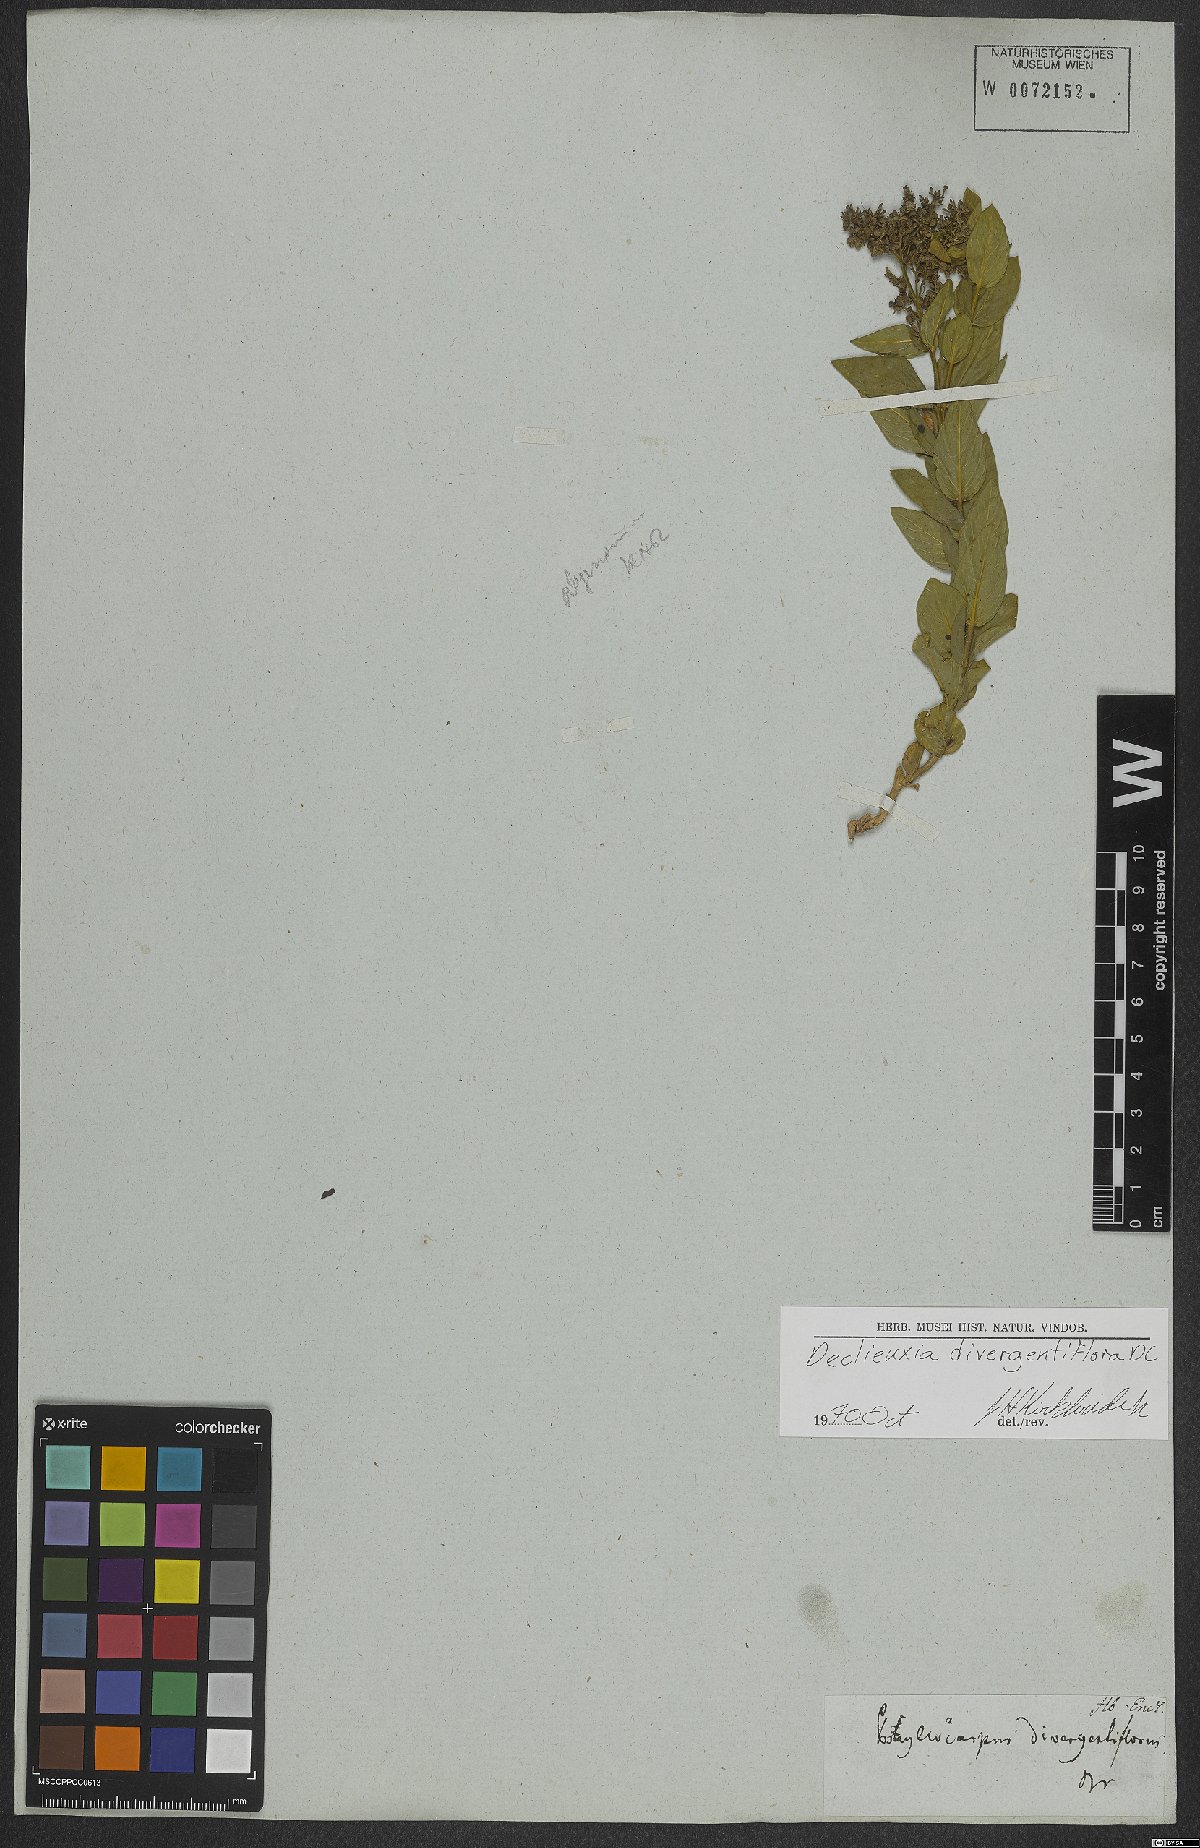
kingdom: Plantae
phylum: Tracheophyta
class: Magnoliopsida
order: Gentianales
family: Rubiaceae
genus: Declieuxia
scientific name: Declieuxia lysimachioides
